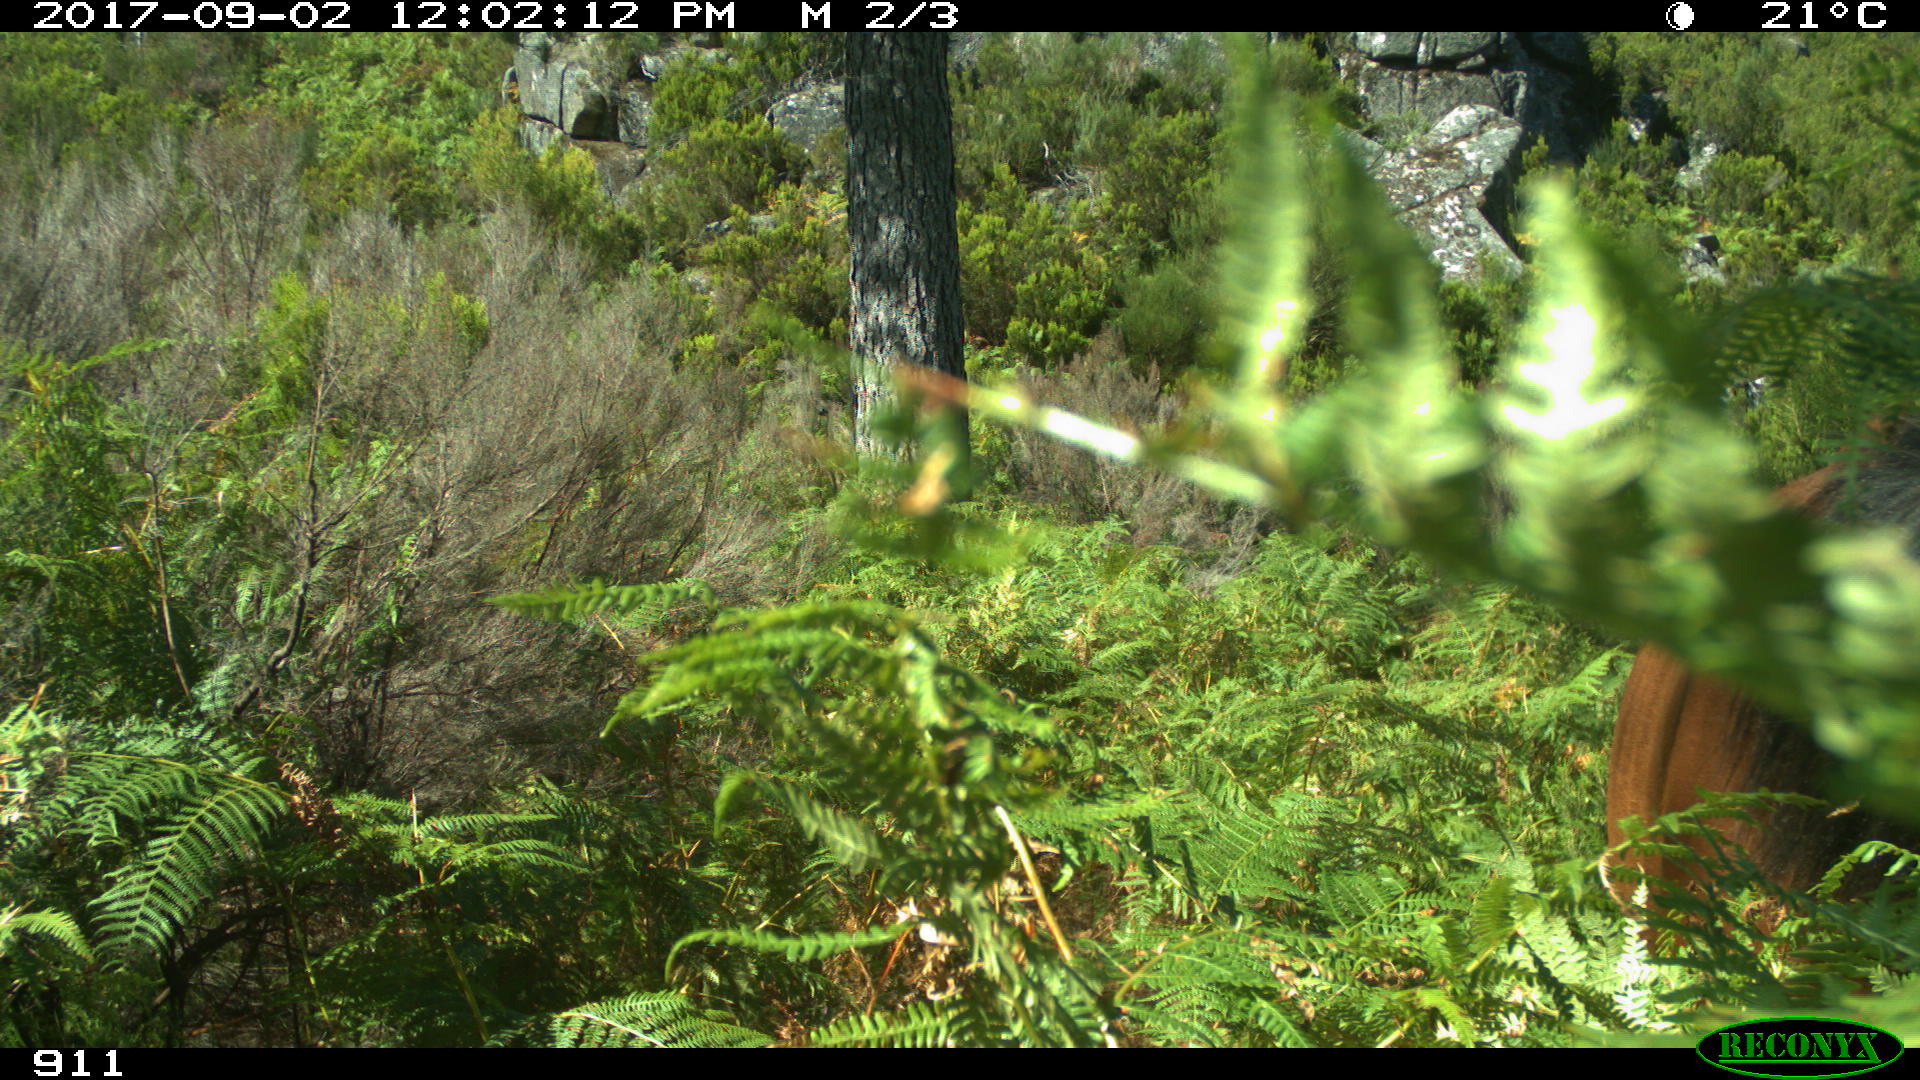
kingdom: Animalia
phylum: Chordata
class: Mammalia
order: Perissodactyla
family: Equidae
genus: Equus
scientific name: Equus caballus
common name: Horse
